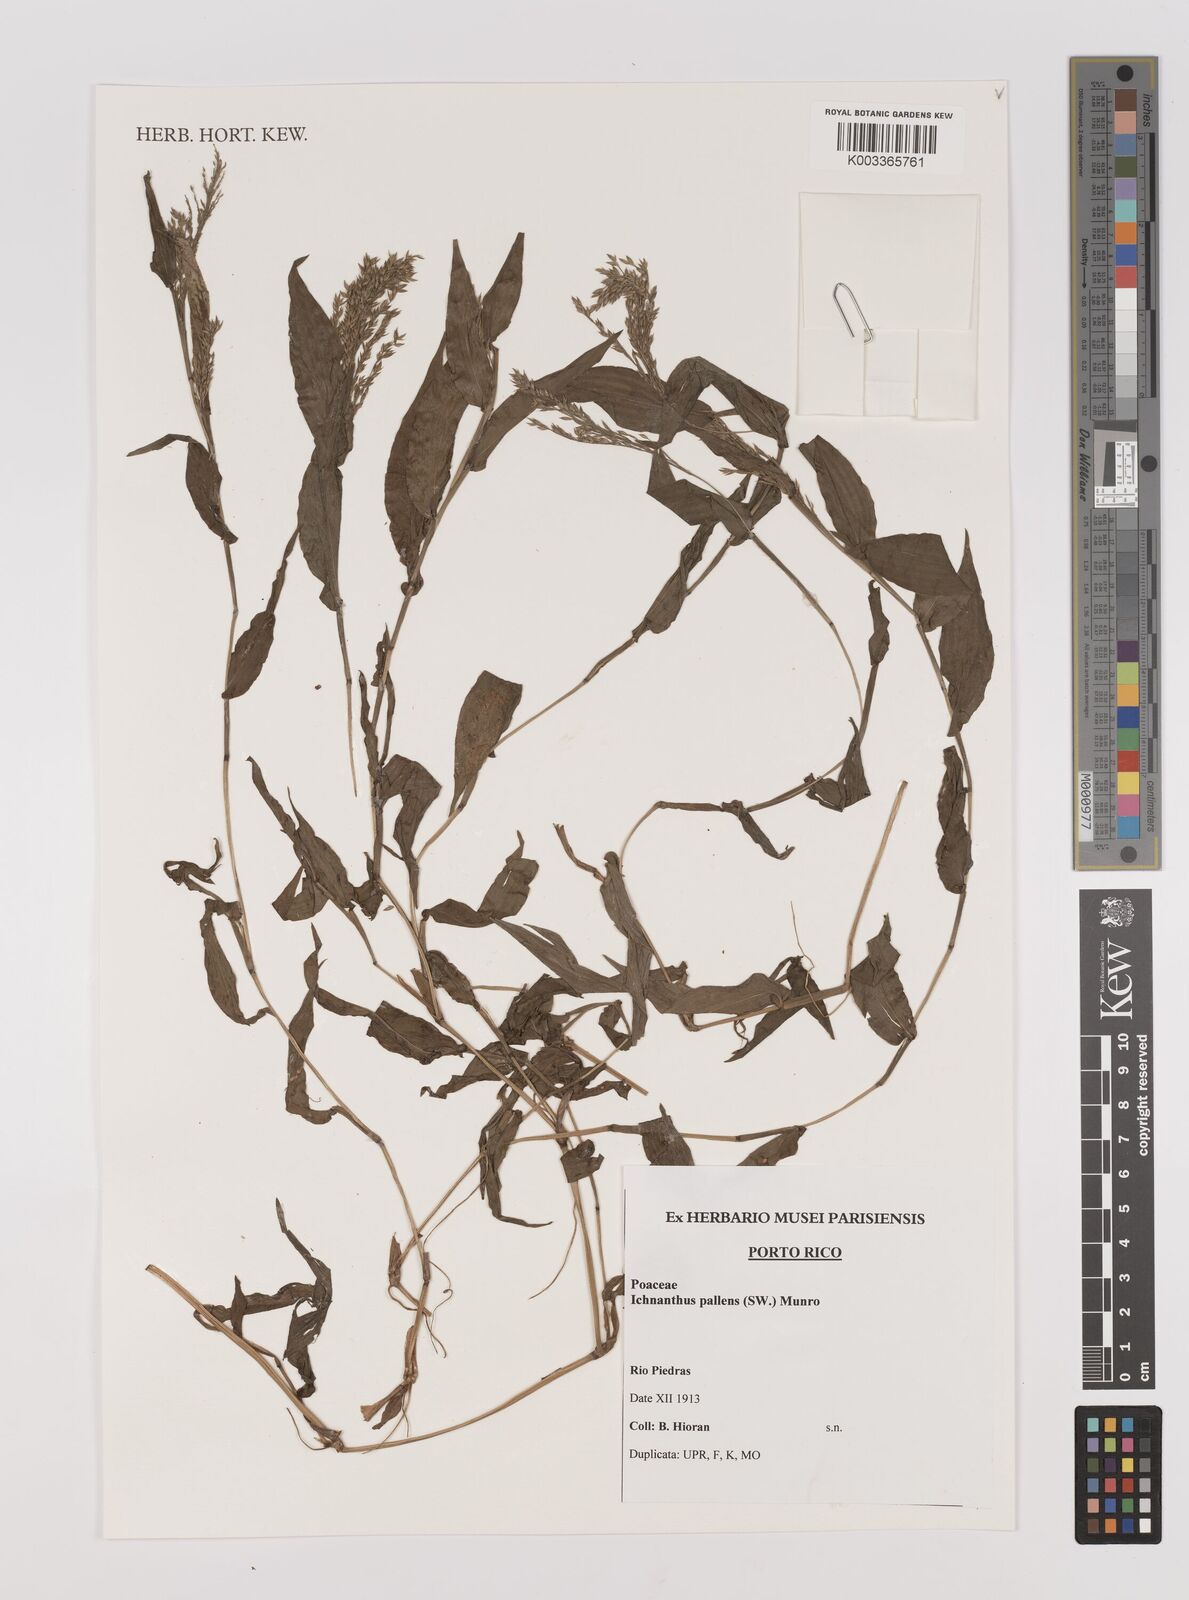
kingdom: Plantae
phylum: Tracheophyta
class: Liliopsida
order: Poales
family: Poaceae
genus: Ichnanthus
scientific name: Ichnanthus pallens
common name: Water grass
